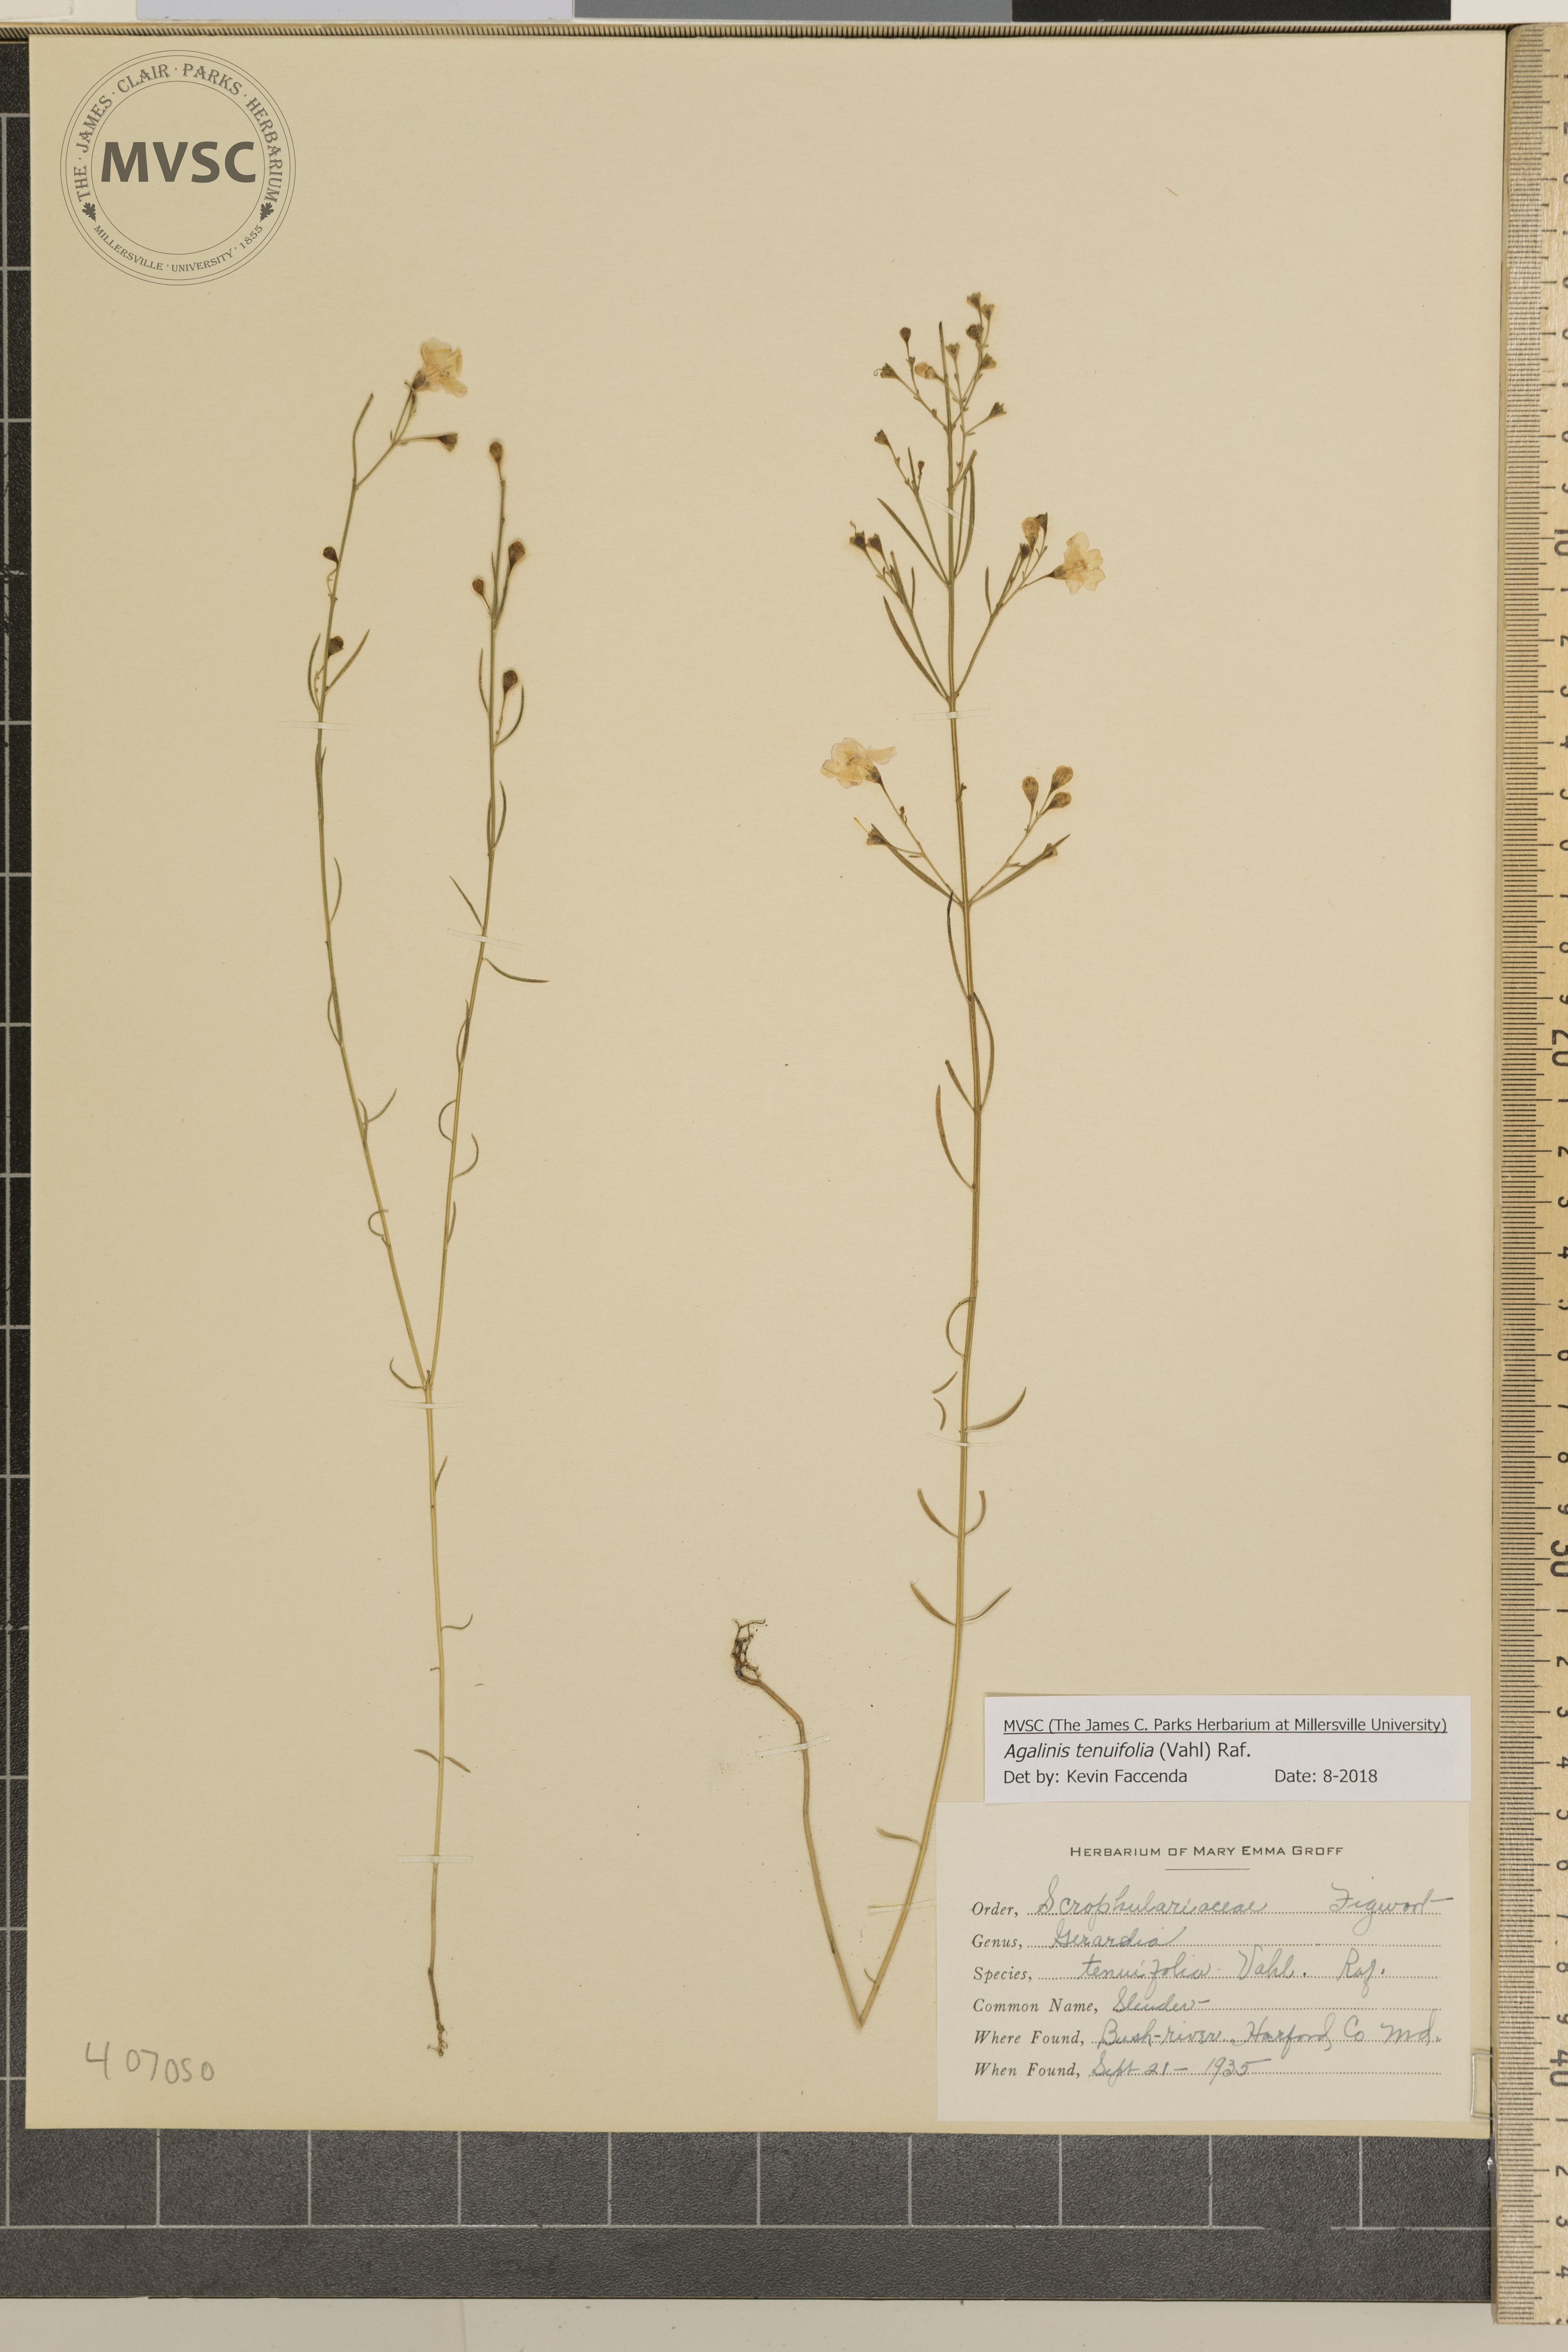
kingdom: Plantae
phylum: Tracheophyta
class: Magnoliopsida
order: Lamiales
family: Orobanchaceae
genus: Agalinis
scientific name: Agalinis tenuifolia
